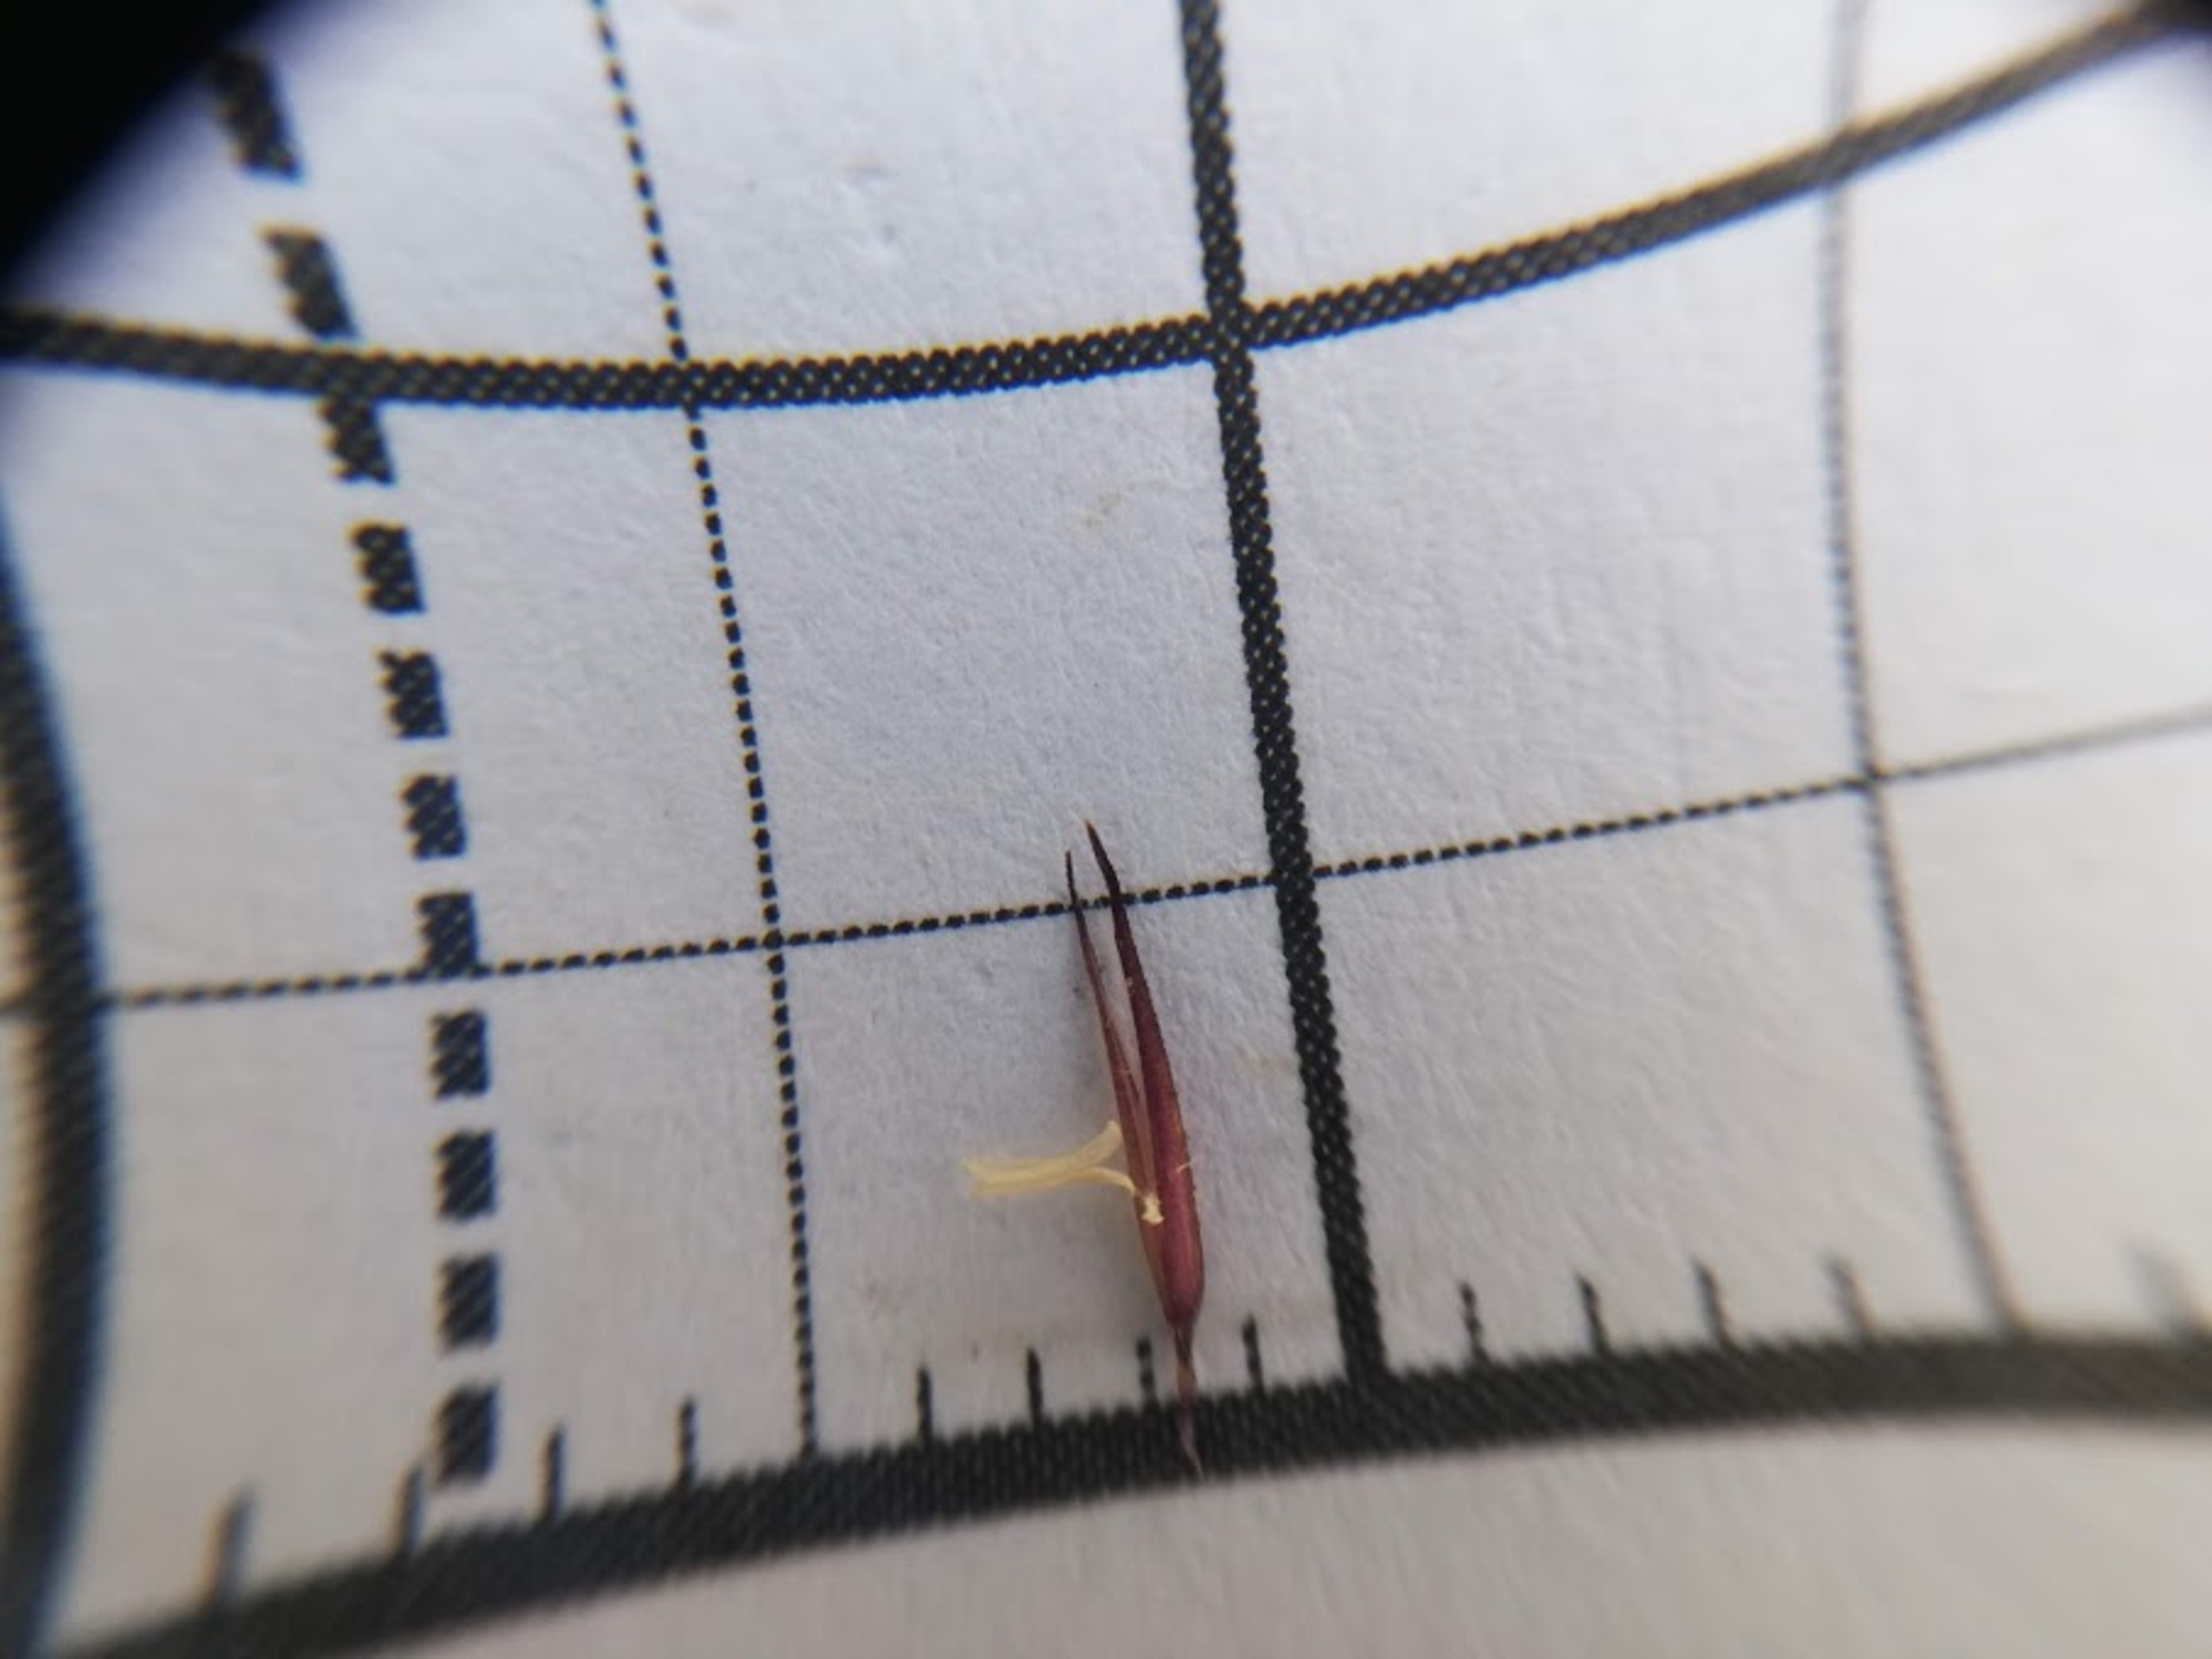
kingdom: Plantae
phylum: Tracheophyta
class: Liliopsida
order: Poales
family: Poaceae
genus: Calamagrostis
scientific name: Calamagrostis epigejos
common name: Bjerg-rørhvene
